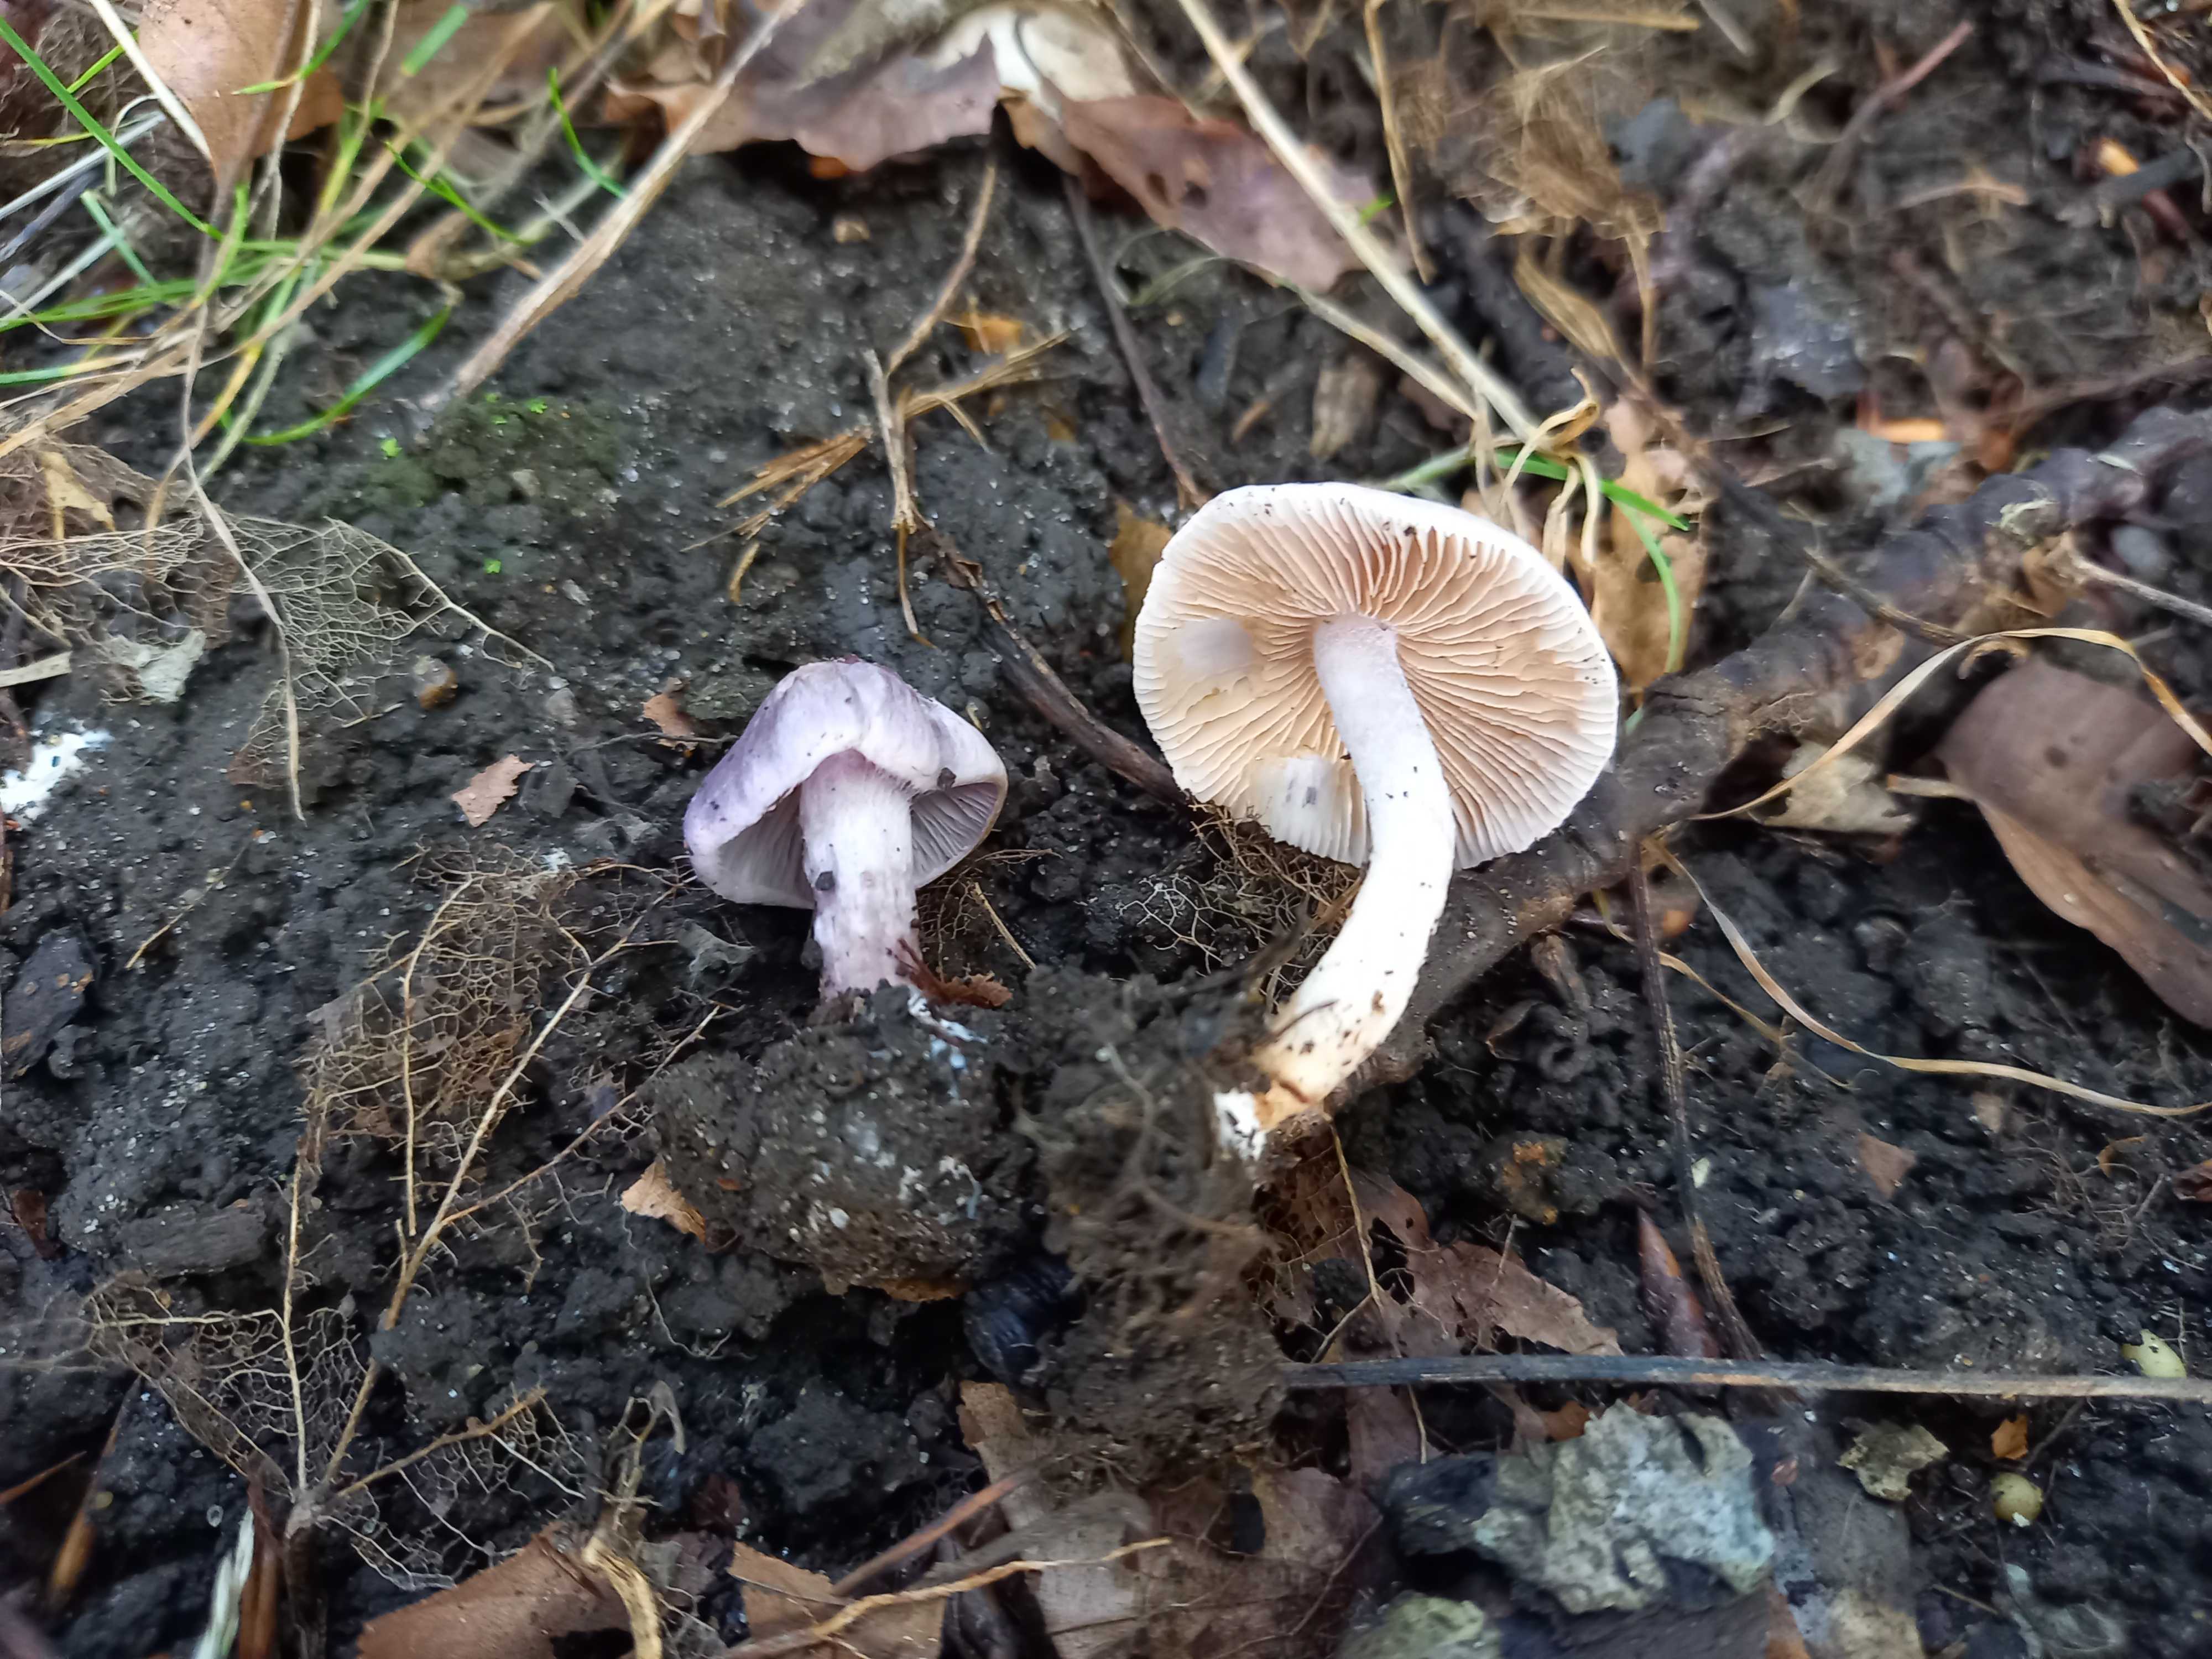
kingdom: Fungi
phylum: Basidiomycota
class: Agaricomycetes
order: Agaricales
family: Inocybaceae
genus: Inocybe
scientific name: Inocybe geophylla
